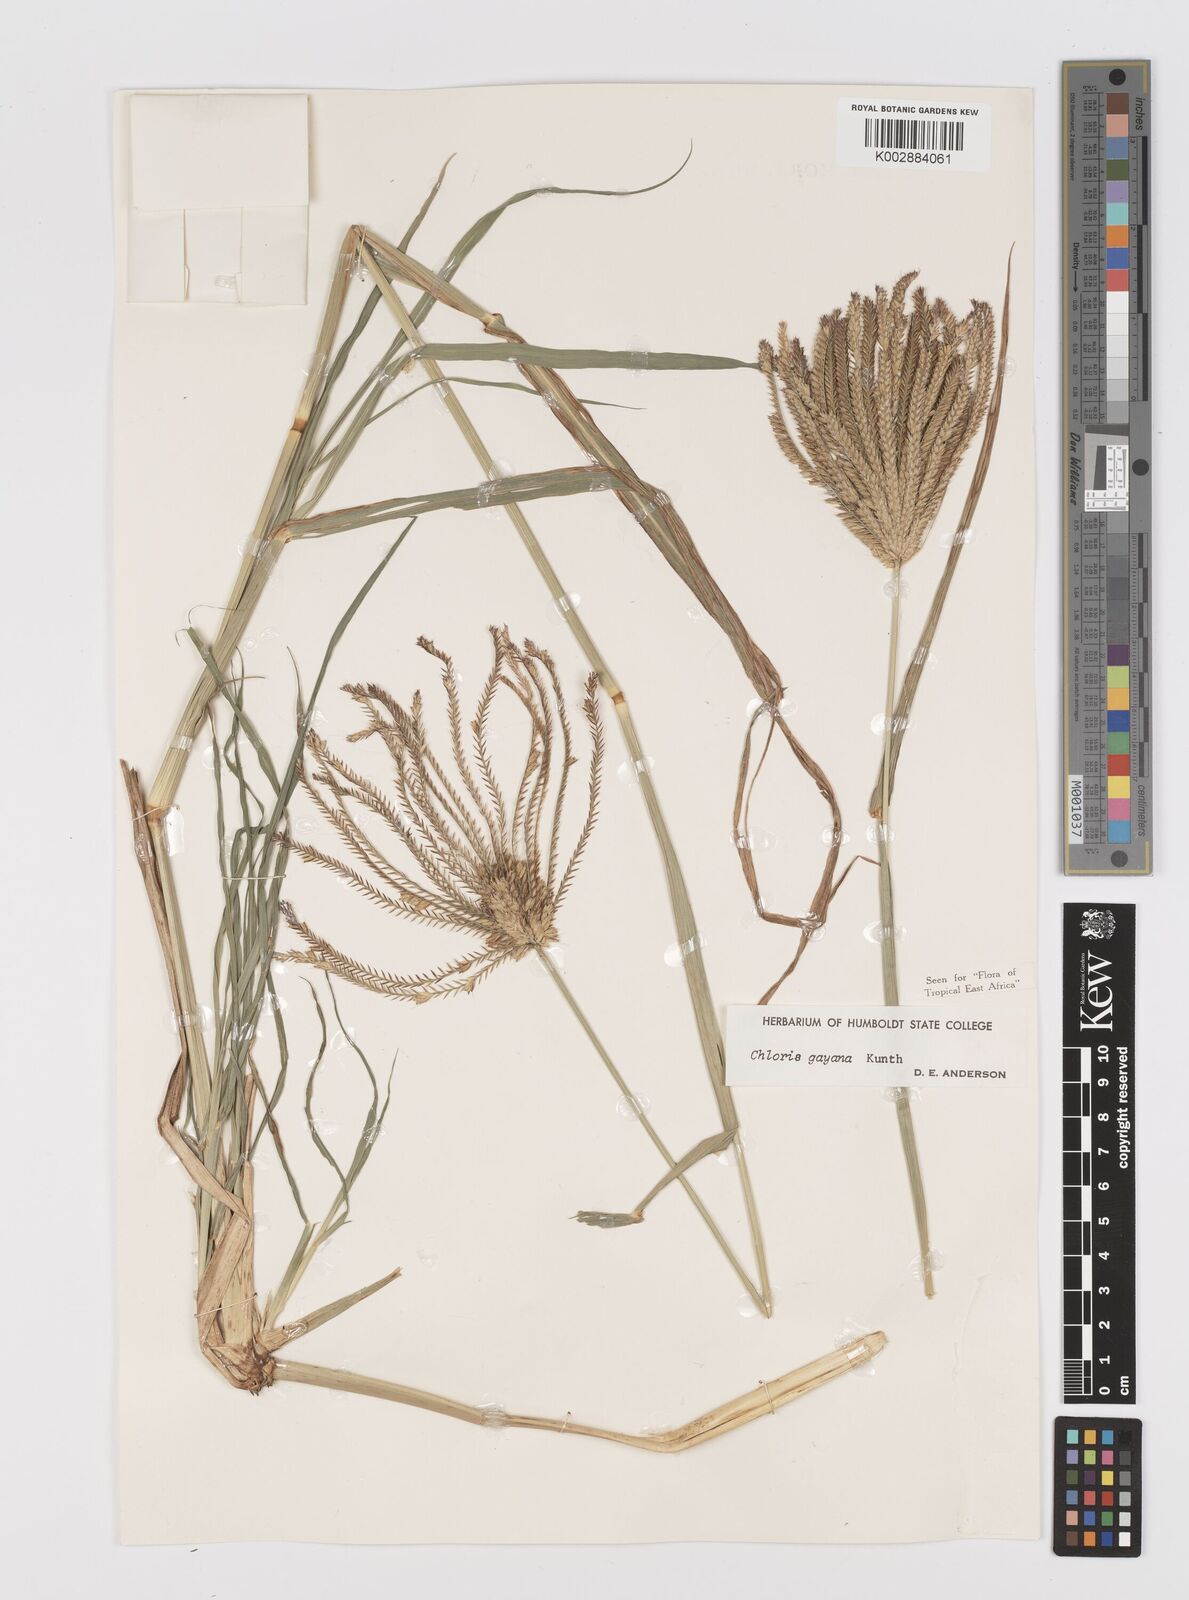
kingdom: Plantae
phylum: Tracheophyta
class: Liliopsida
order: Poales
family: Poaceae
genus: Chloris
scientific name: Chloris gayana
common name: Rhodes grass
